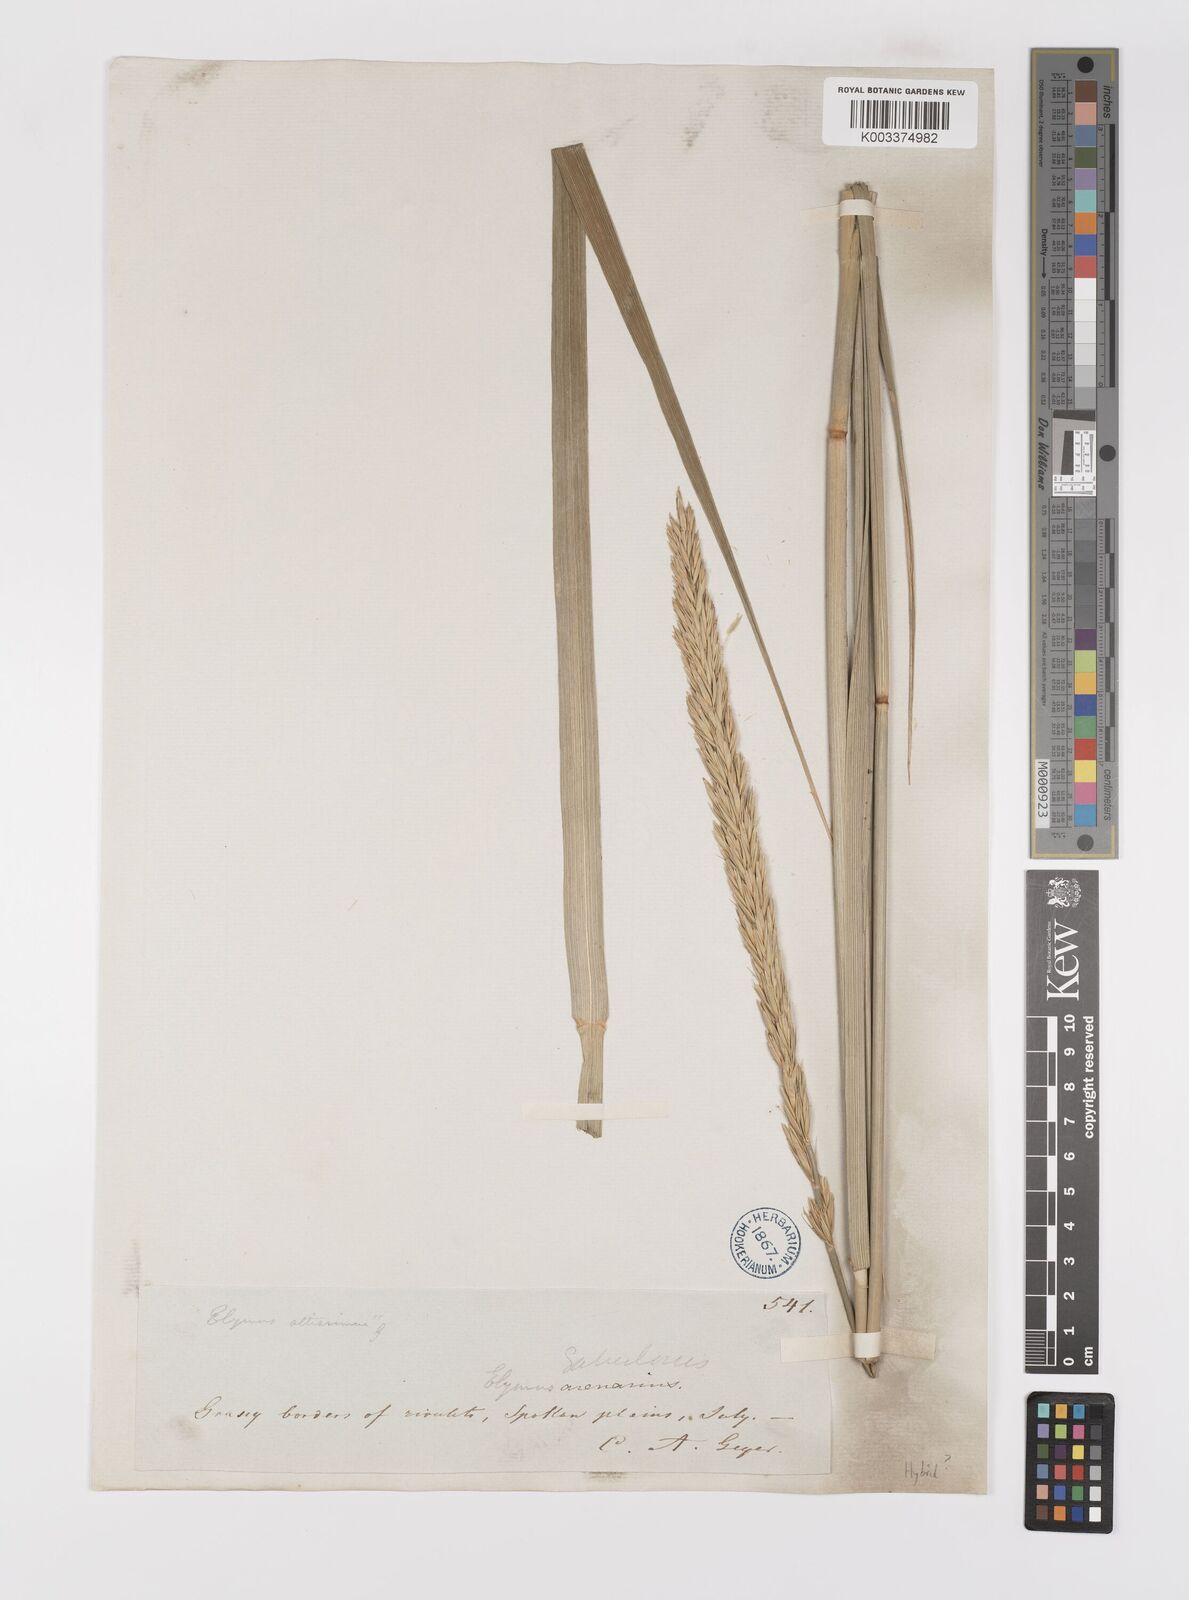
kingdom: Plantae
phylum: Tracheophyta
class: Liliopsida
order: Poales
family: Poaceae
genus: Elymus
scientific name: Elymus lanceolatus
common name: Thick-spike wheatgrass
